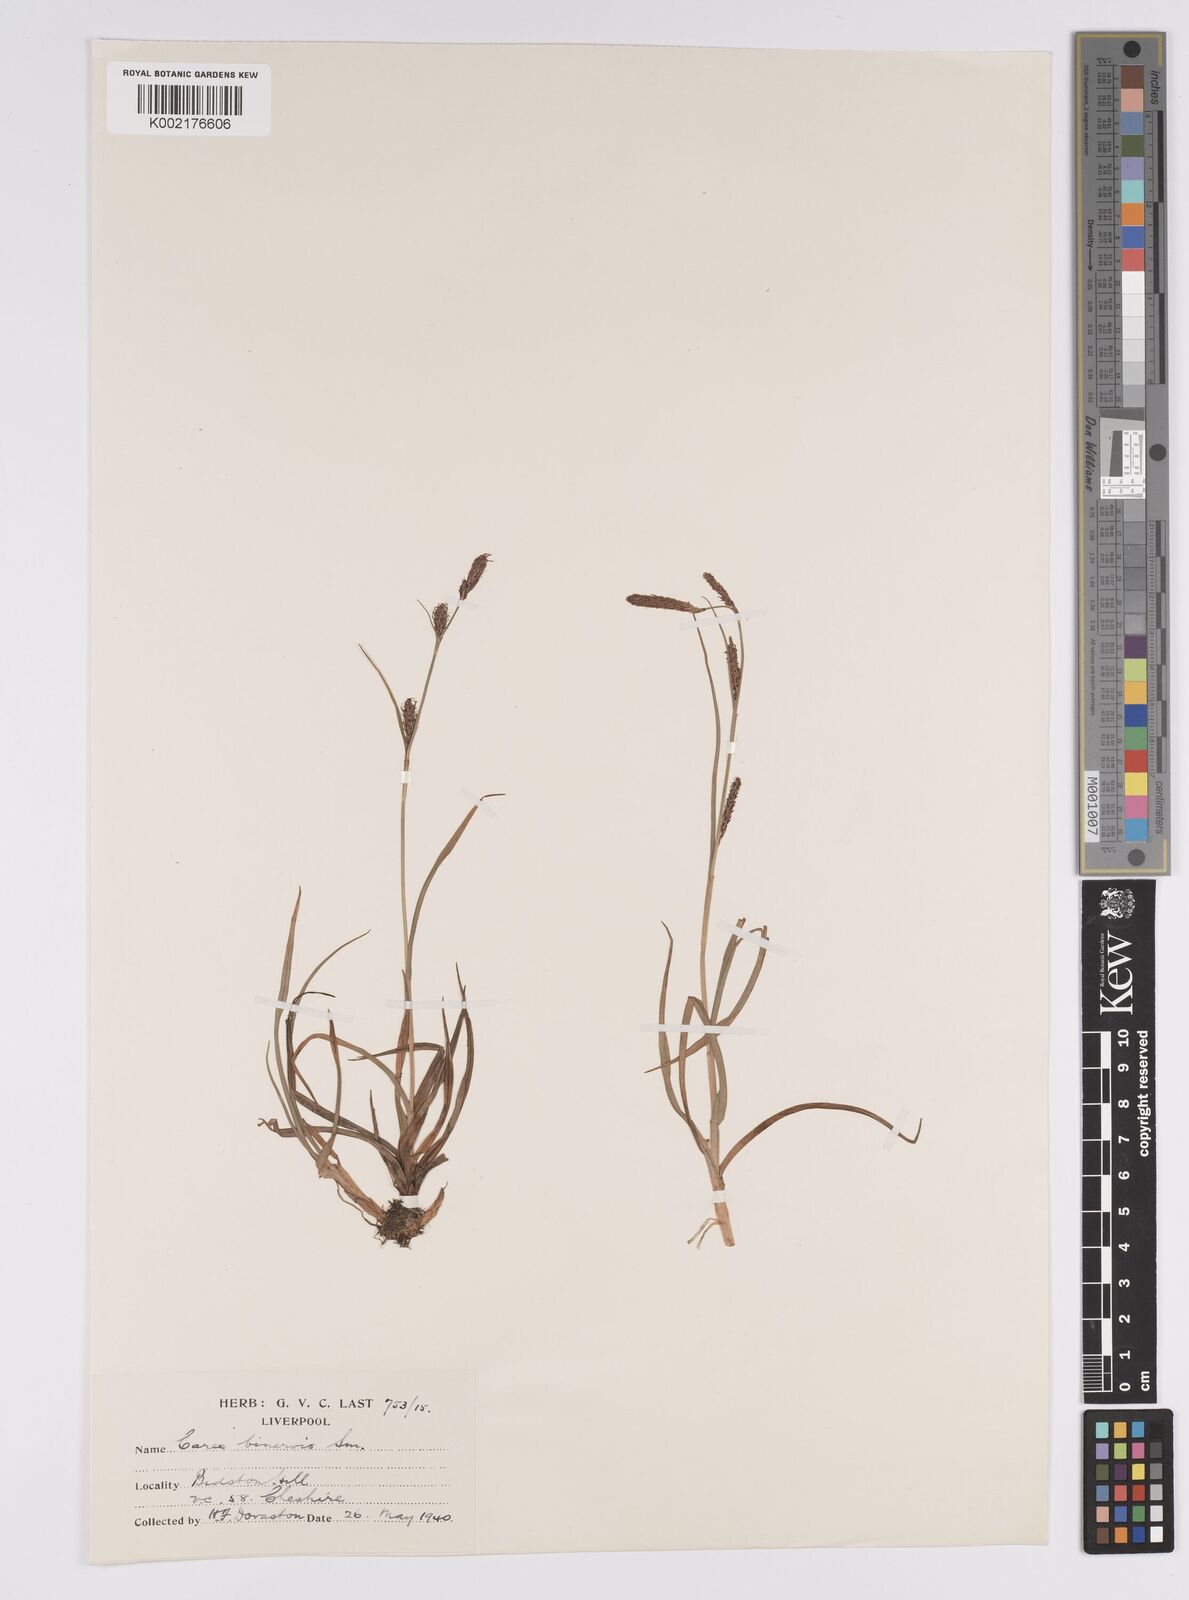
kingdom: Plantae
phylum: Tracheophyta
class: Liliopsida
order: Poales
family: Cyperaceae
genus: Carex
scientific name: Carex binervis
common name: Green-ribbed sedge
